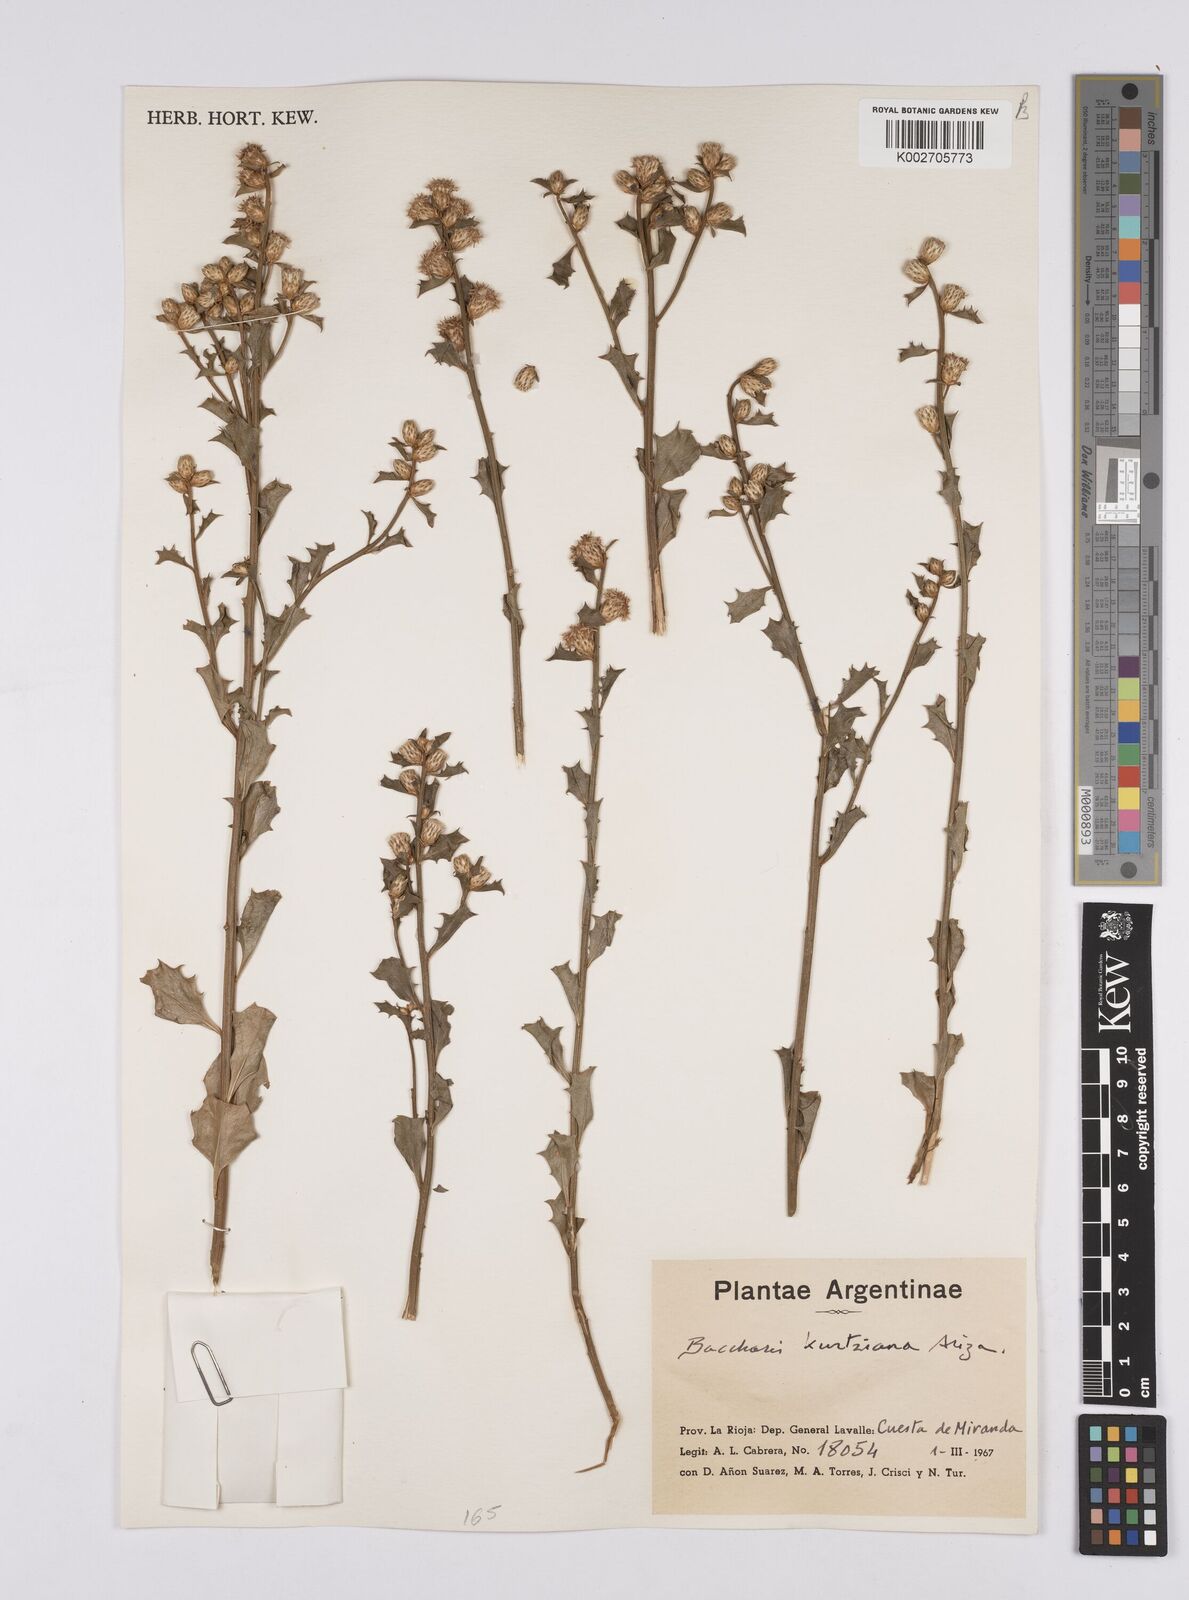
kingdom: Plantae
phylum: Tracheophyta
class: Magnoliopsida
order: Asterales
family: Asteraceae
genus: Baccharis
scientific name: Baccharis kurtziana
